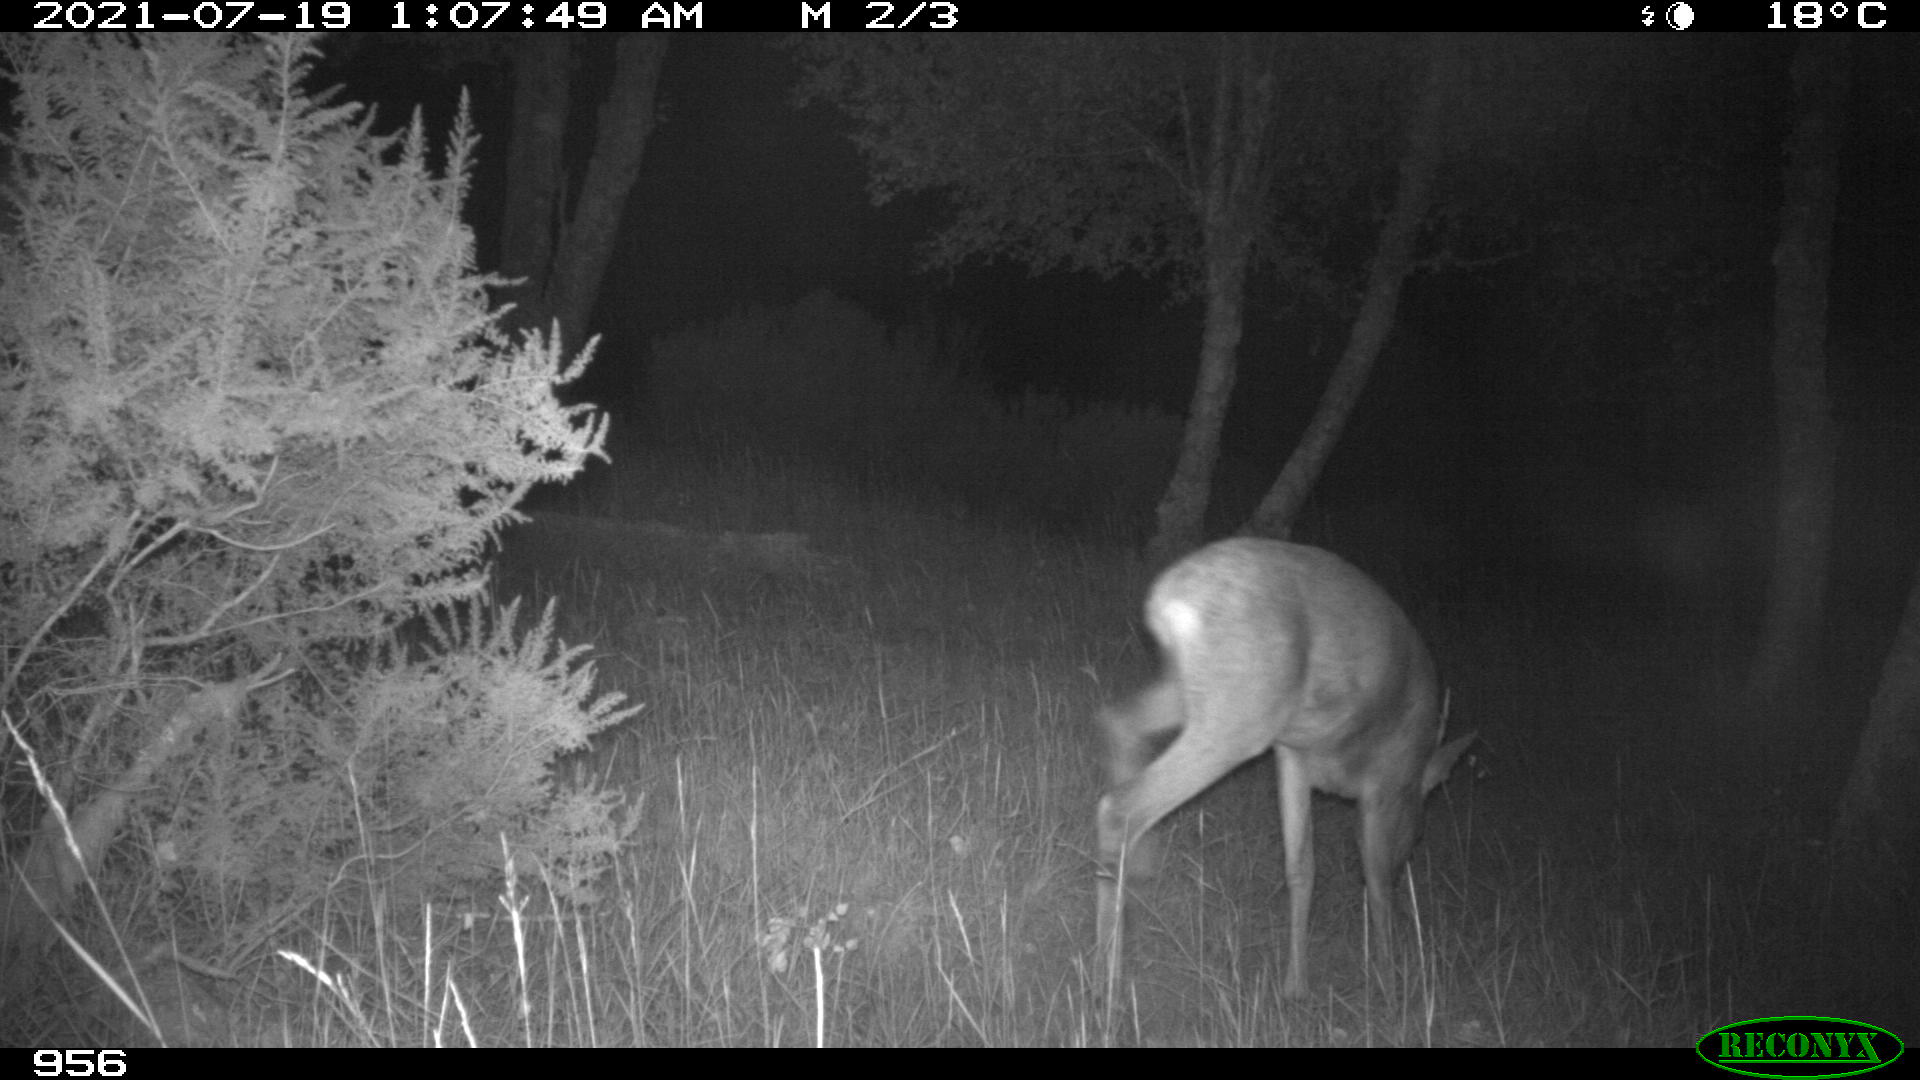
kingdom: Animalia
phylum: Chordata
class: Mammalia
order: Artiodactyla
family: Cervidae
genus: Capreolus
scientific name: Capreolus capreolus
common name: Western roe deer
